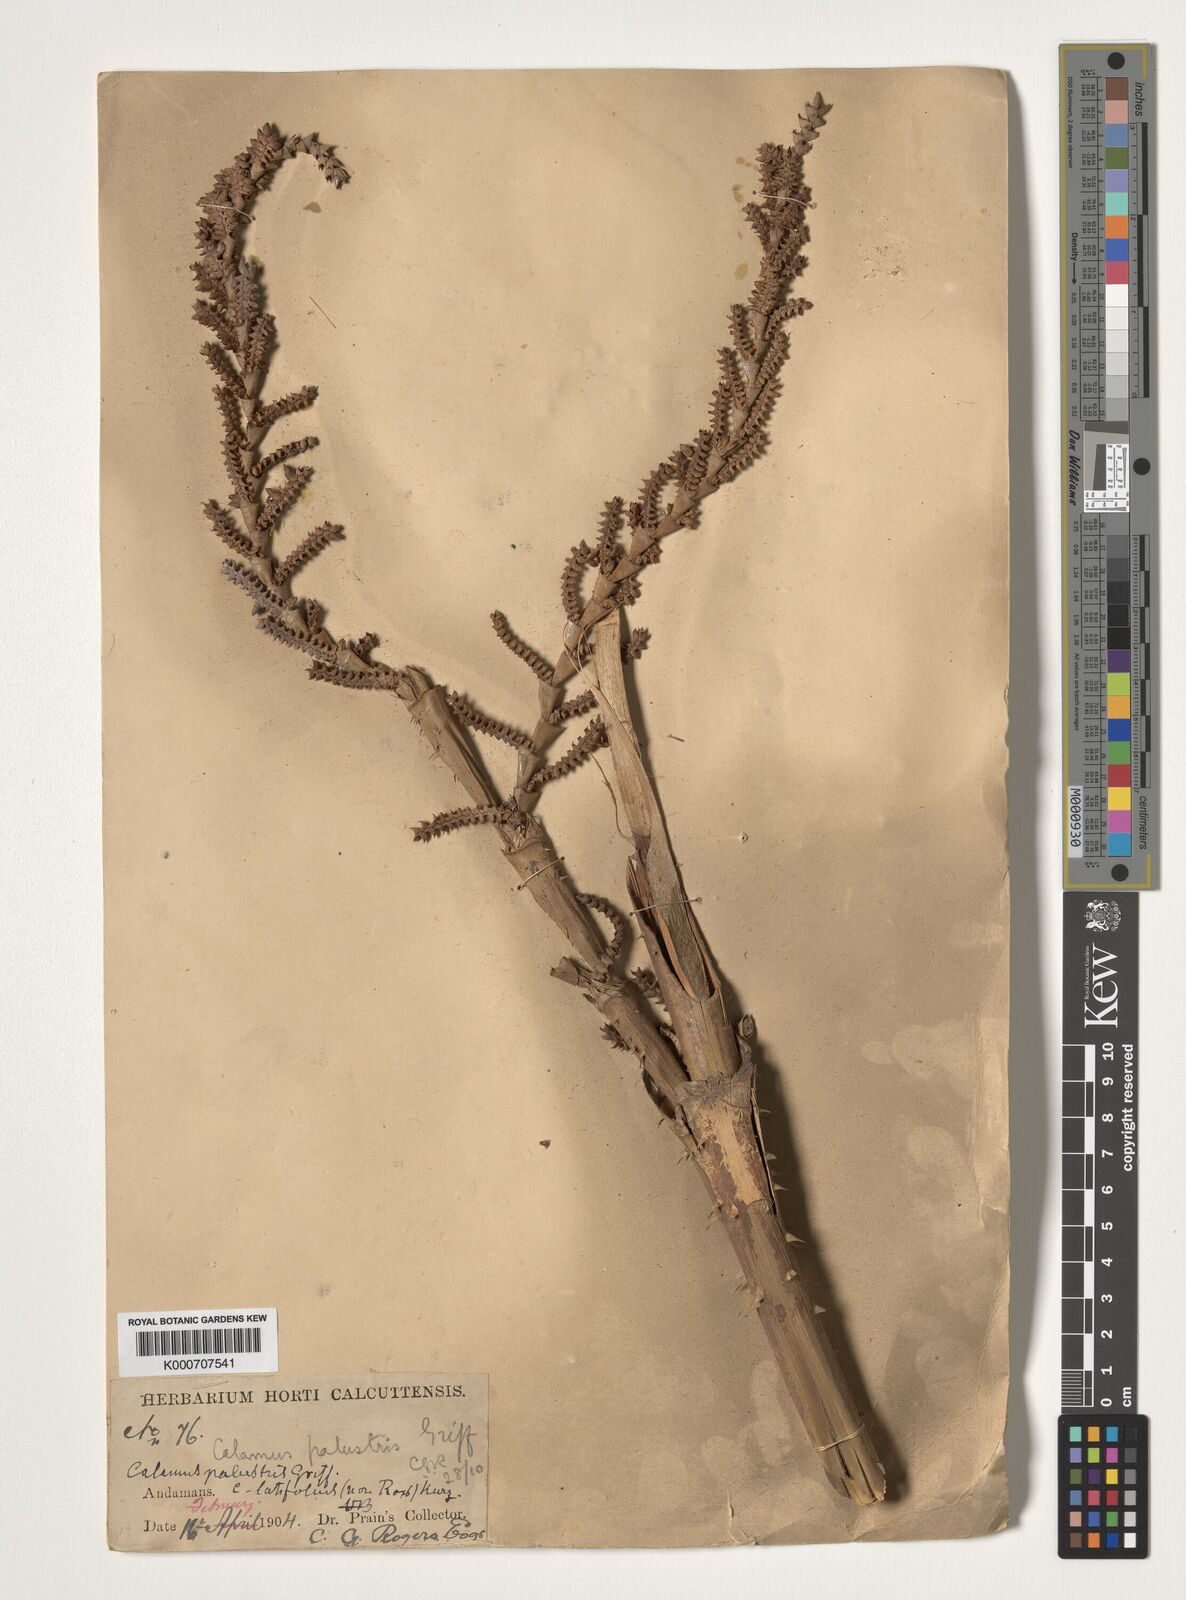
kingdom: Plantae
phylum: Tracheophyta
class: Liliopsida
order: Arecales
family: Arecaceae
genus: Calamus
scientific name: Calamus latifolius
